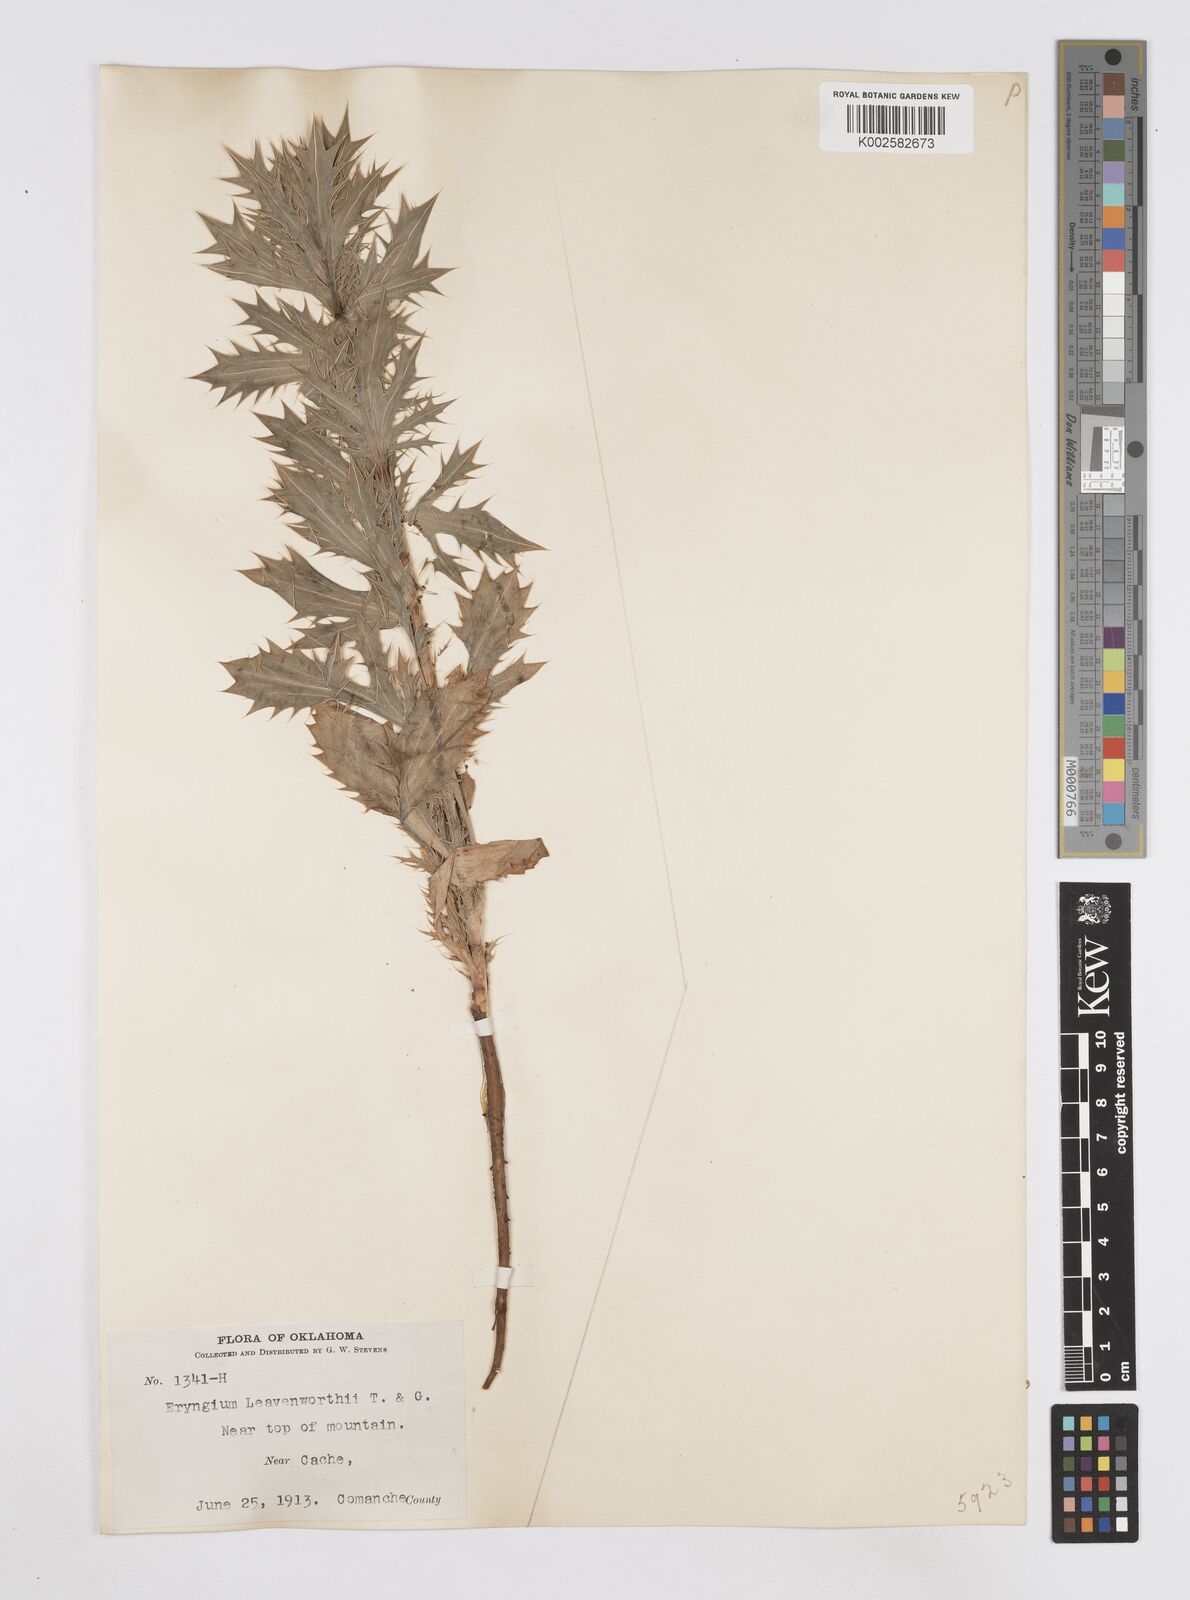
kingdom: Plantae
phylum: Tracheophyta
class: Magnoliopsida
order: Apiales
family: Apiaceae
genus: Eryngium
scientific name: Eryngium leavenworthii
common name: Leavenworth's eryngo
